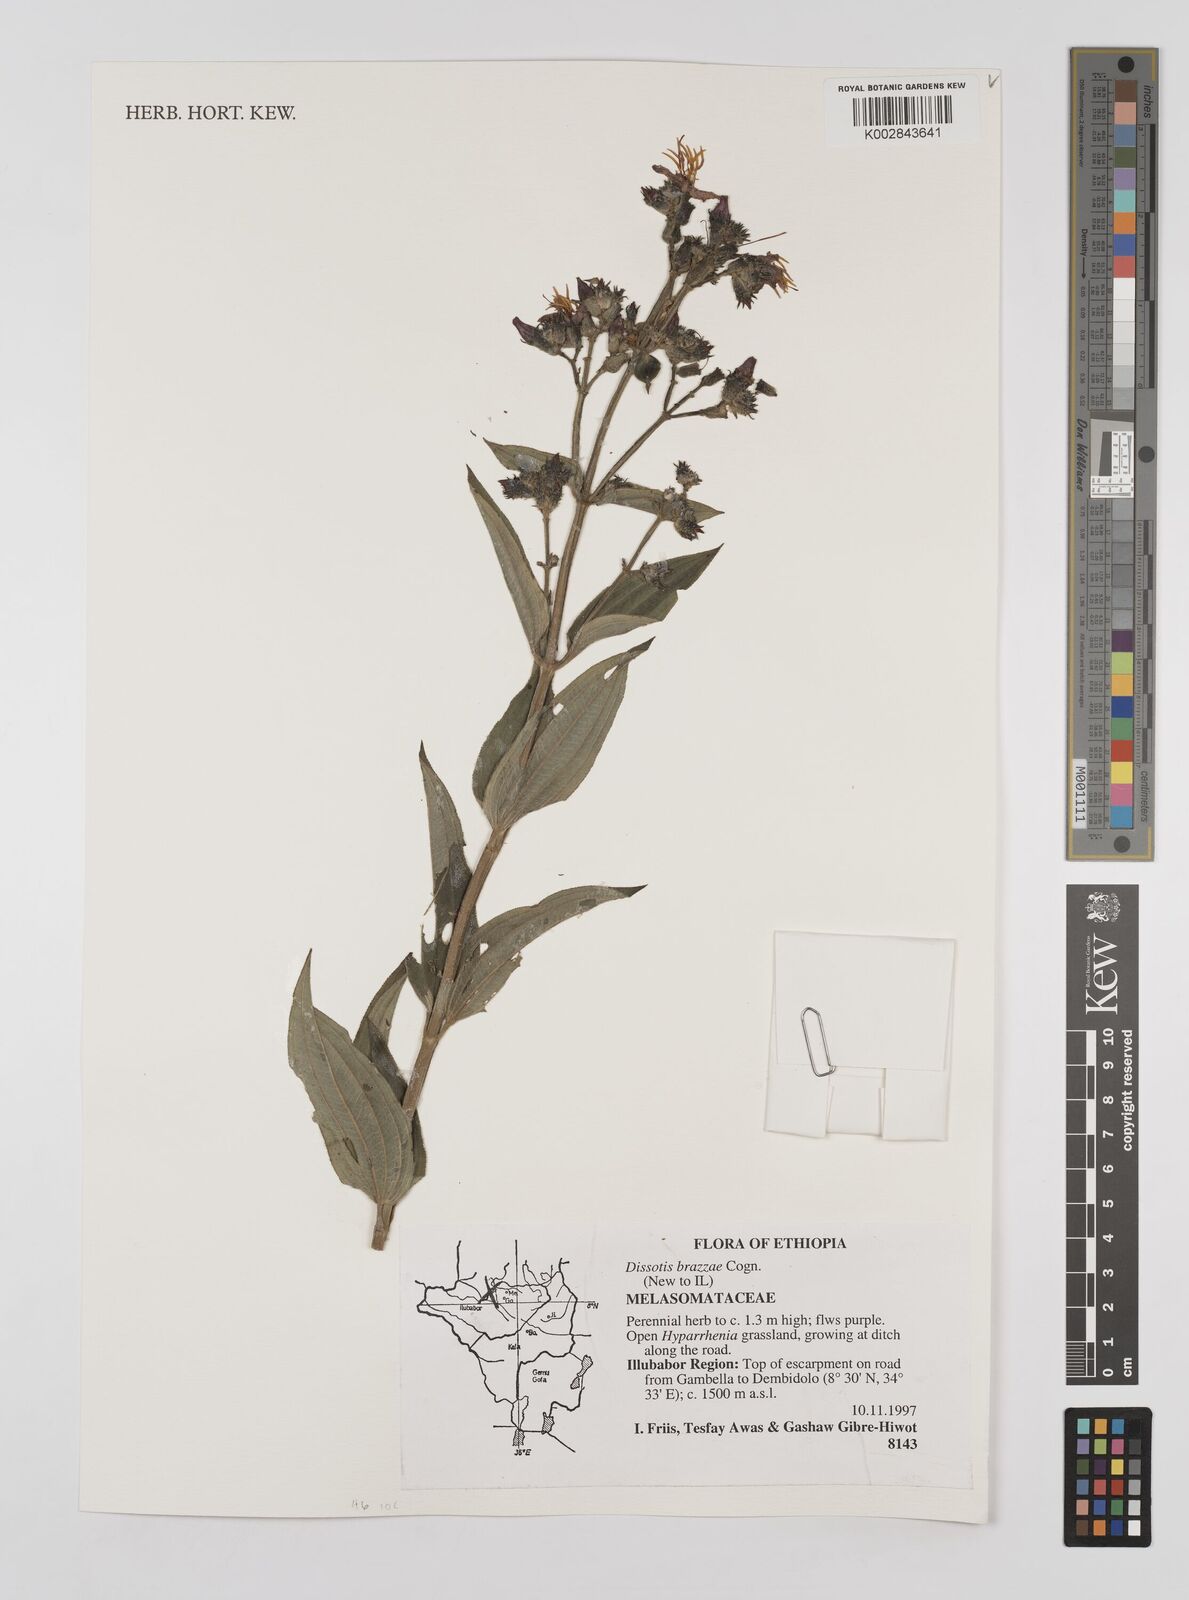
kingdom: Plantae
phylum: Tracheophyta
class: Magnoliopsida
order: Myrtales
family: Melastomataceae
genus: Dupineta
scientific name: Dupineta brazzae
